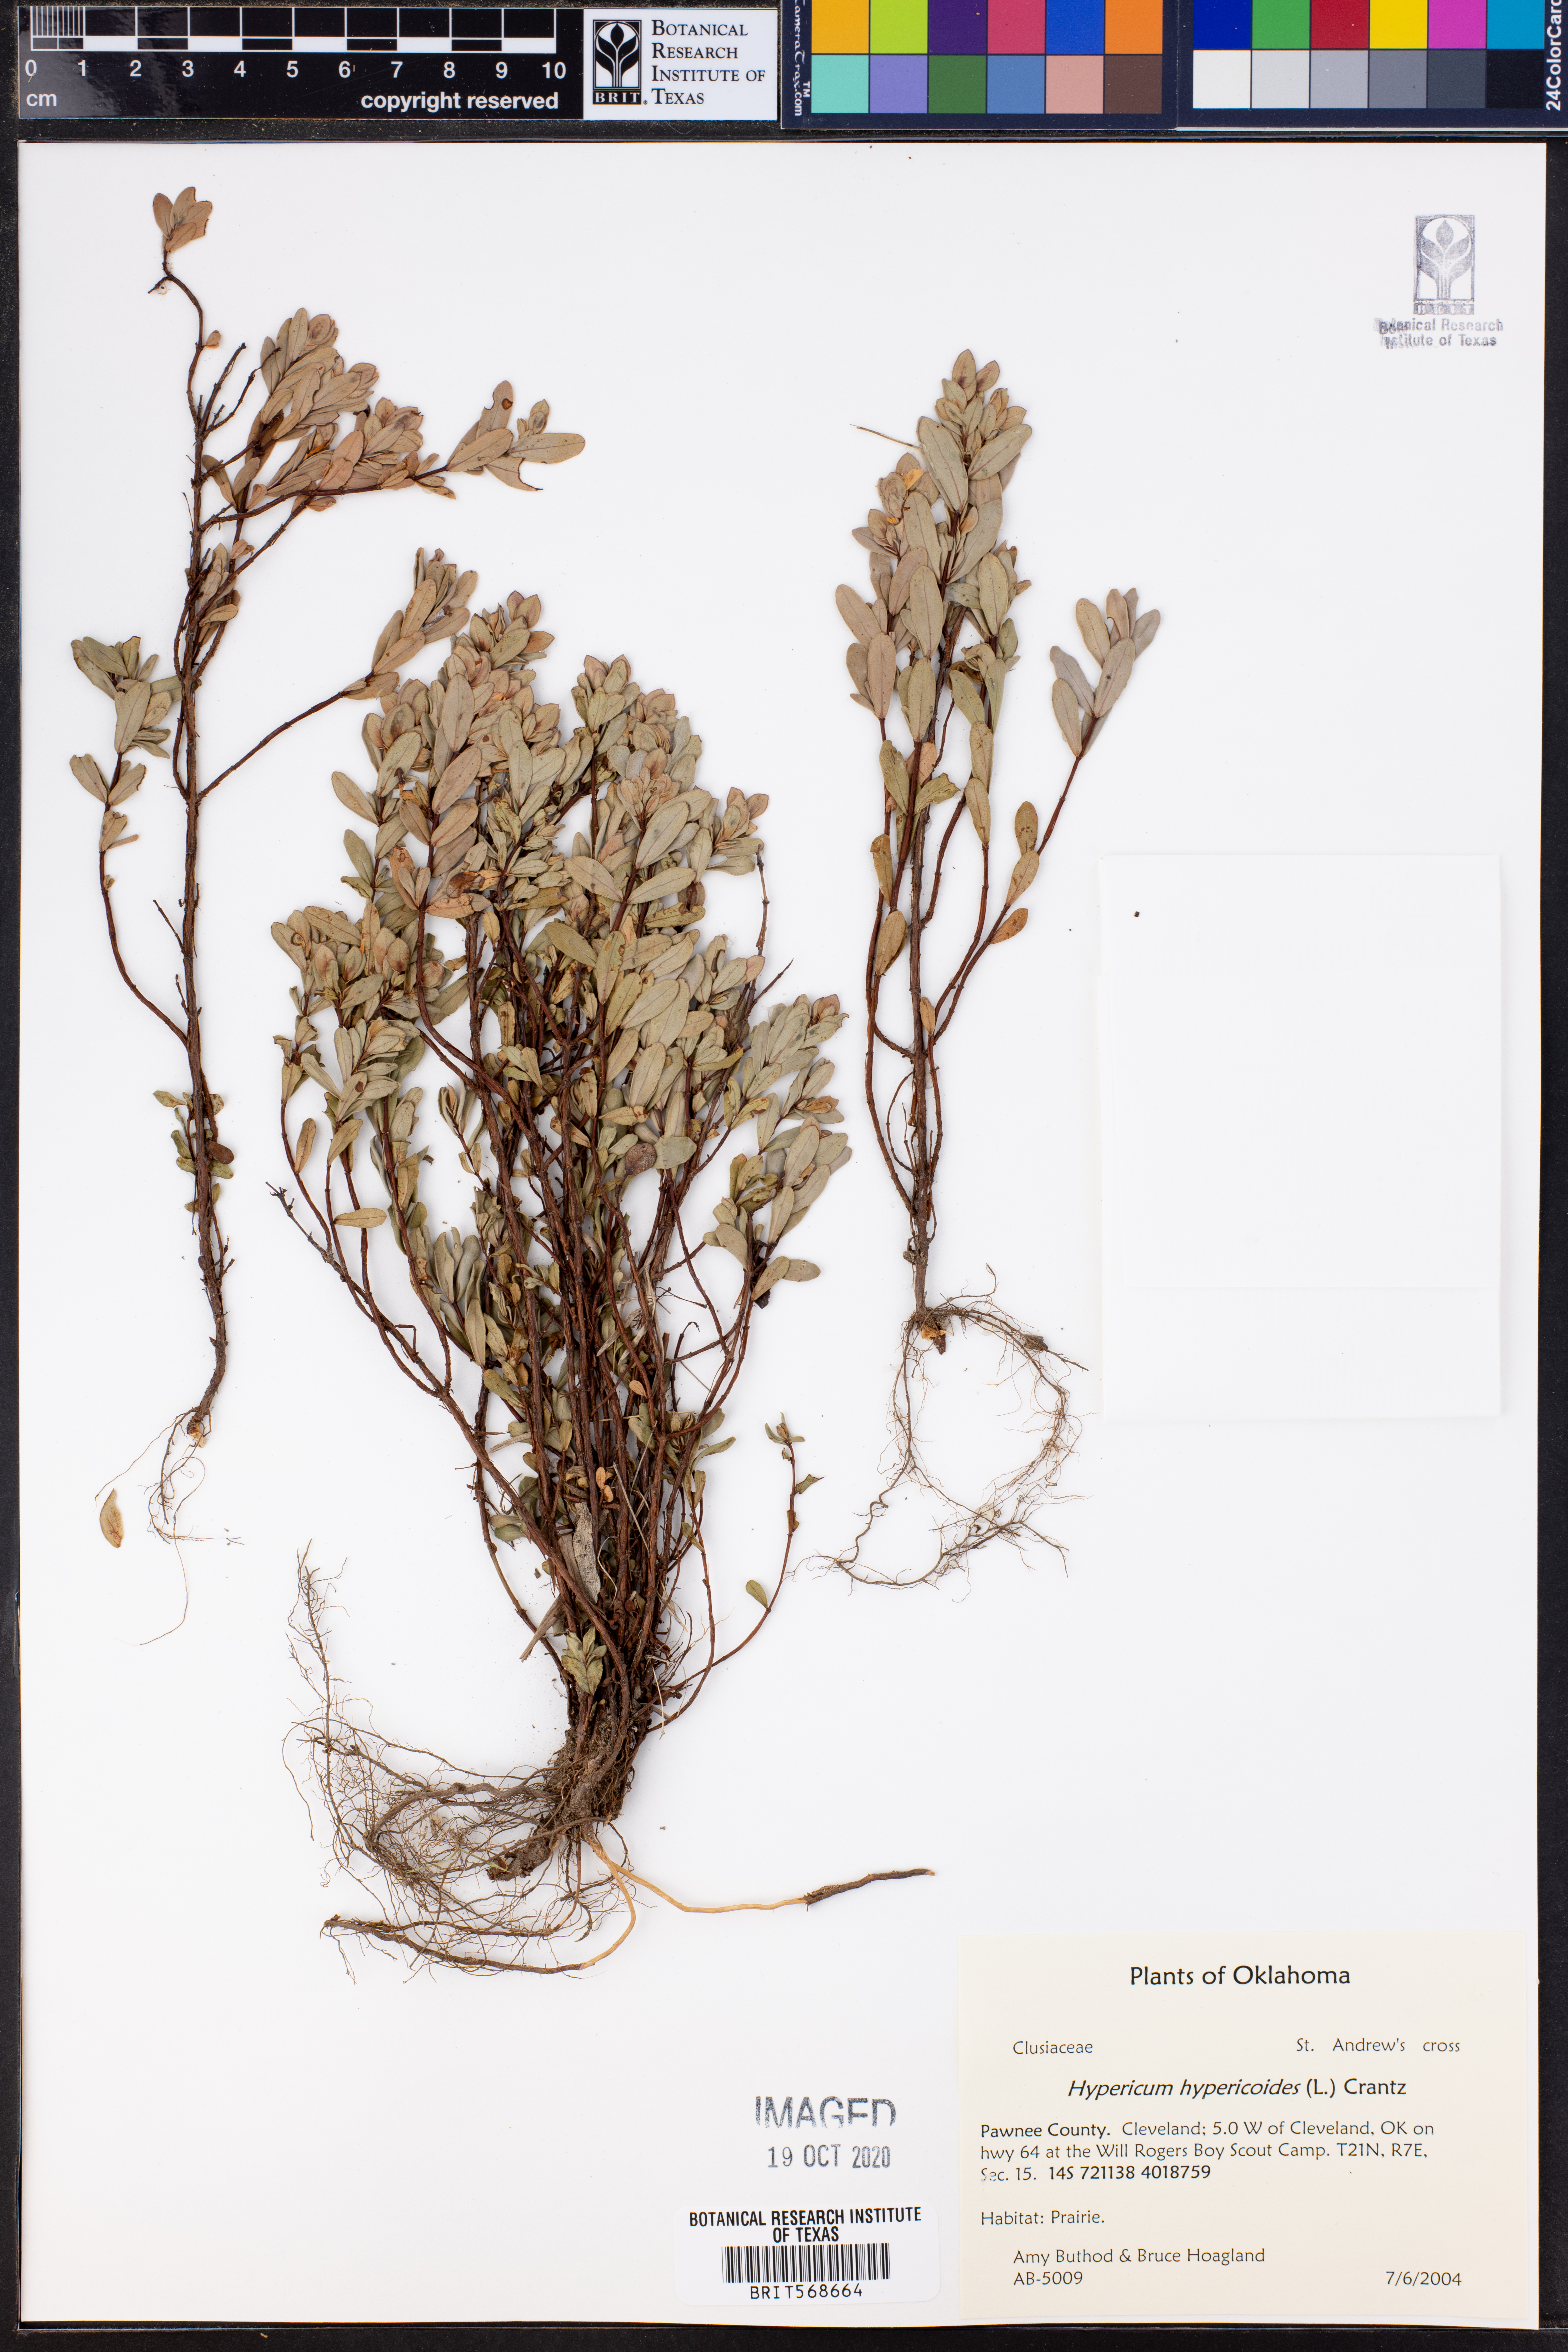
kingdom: Plantae
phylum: Tracheophyta
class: Magnoliopsida
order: Malpighiales
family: Hypericaceae
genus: Hypericum
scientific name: Hypericum hypericoides
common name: St. andrew's cross
